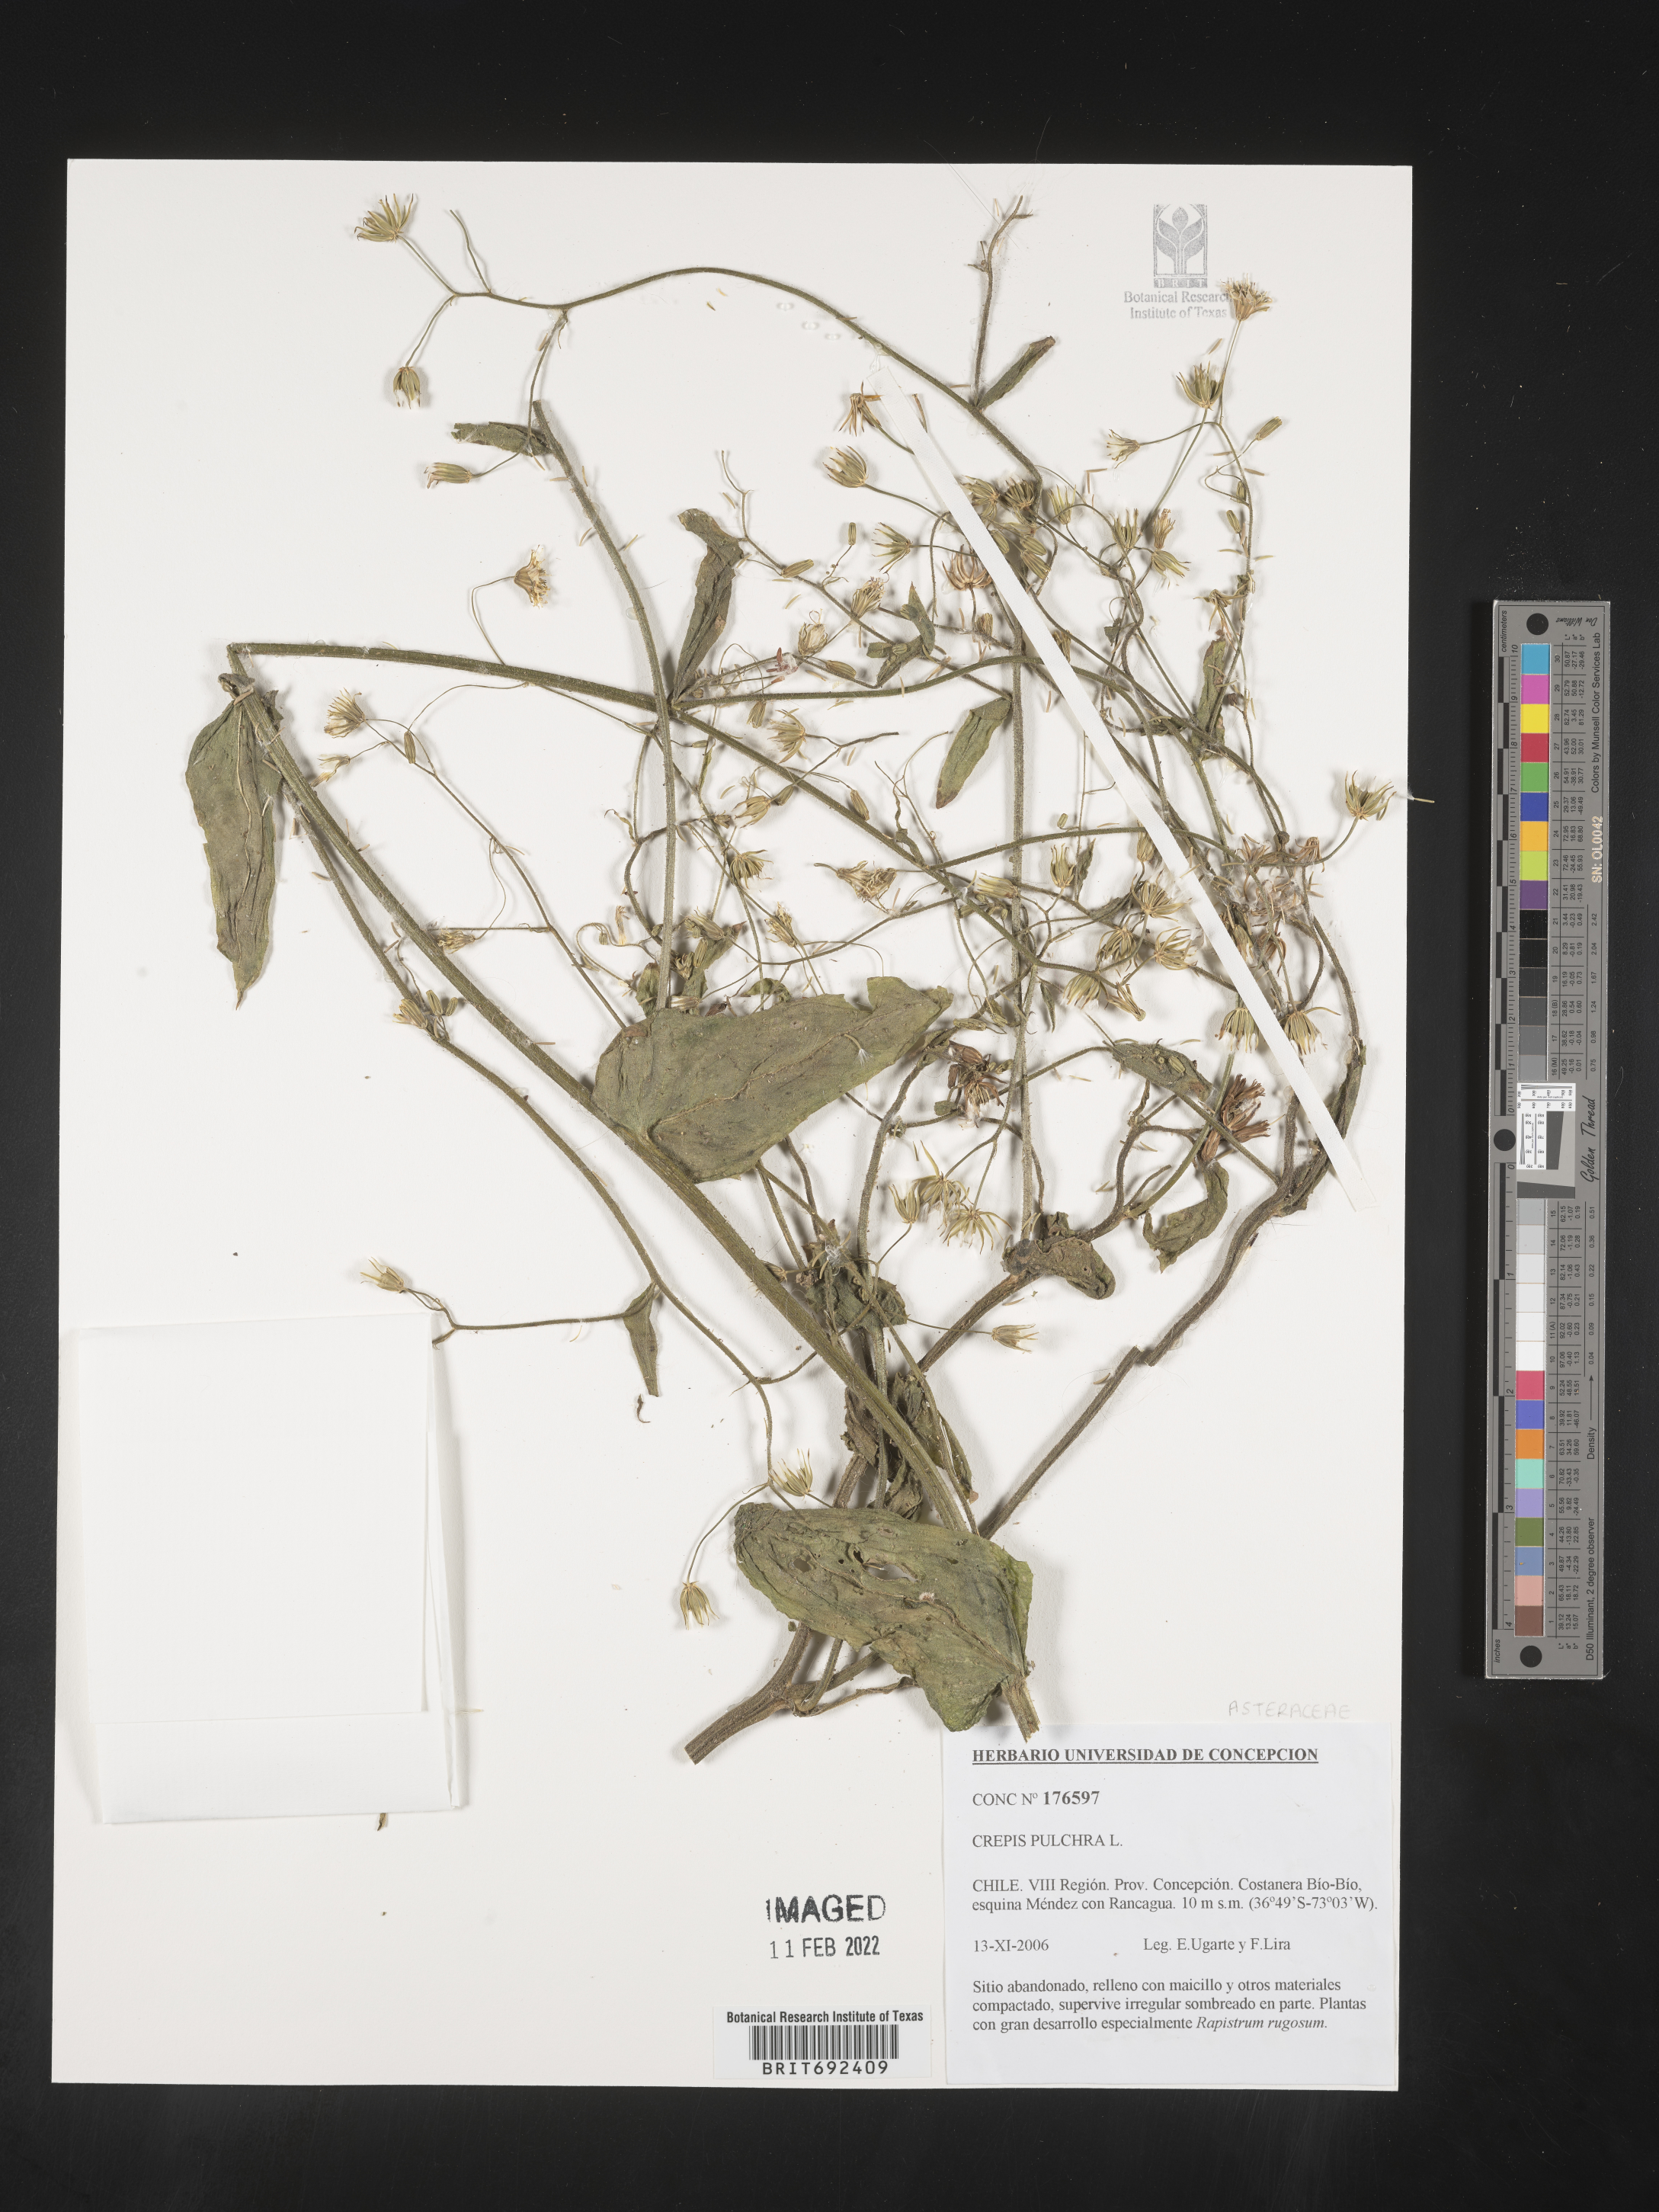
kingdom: Plantae
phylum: Tracheophyta
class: Magnoliopsida
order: Asterales
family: Asteraceae
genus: Crepis
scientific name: Crepis
